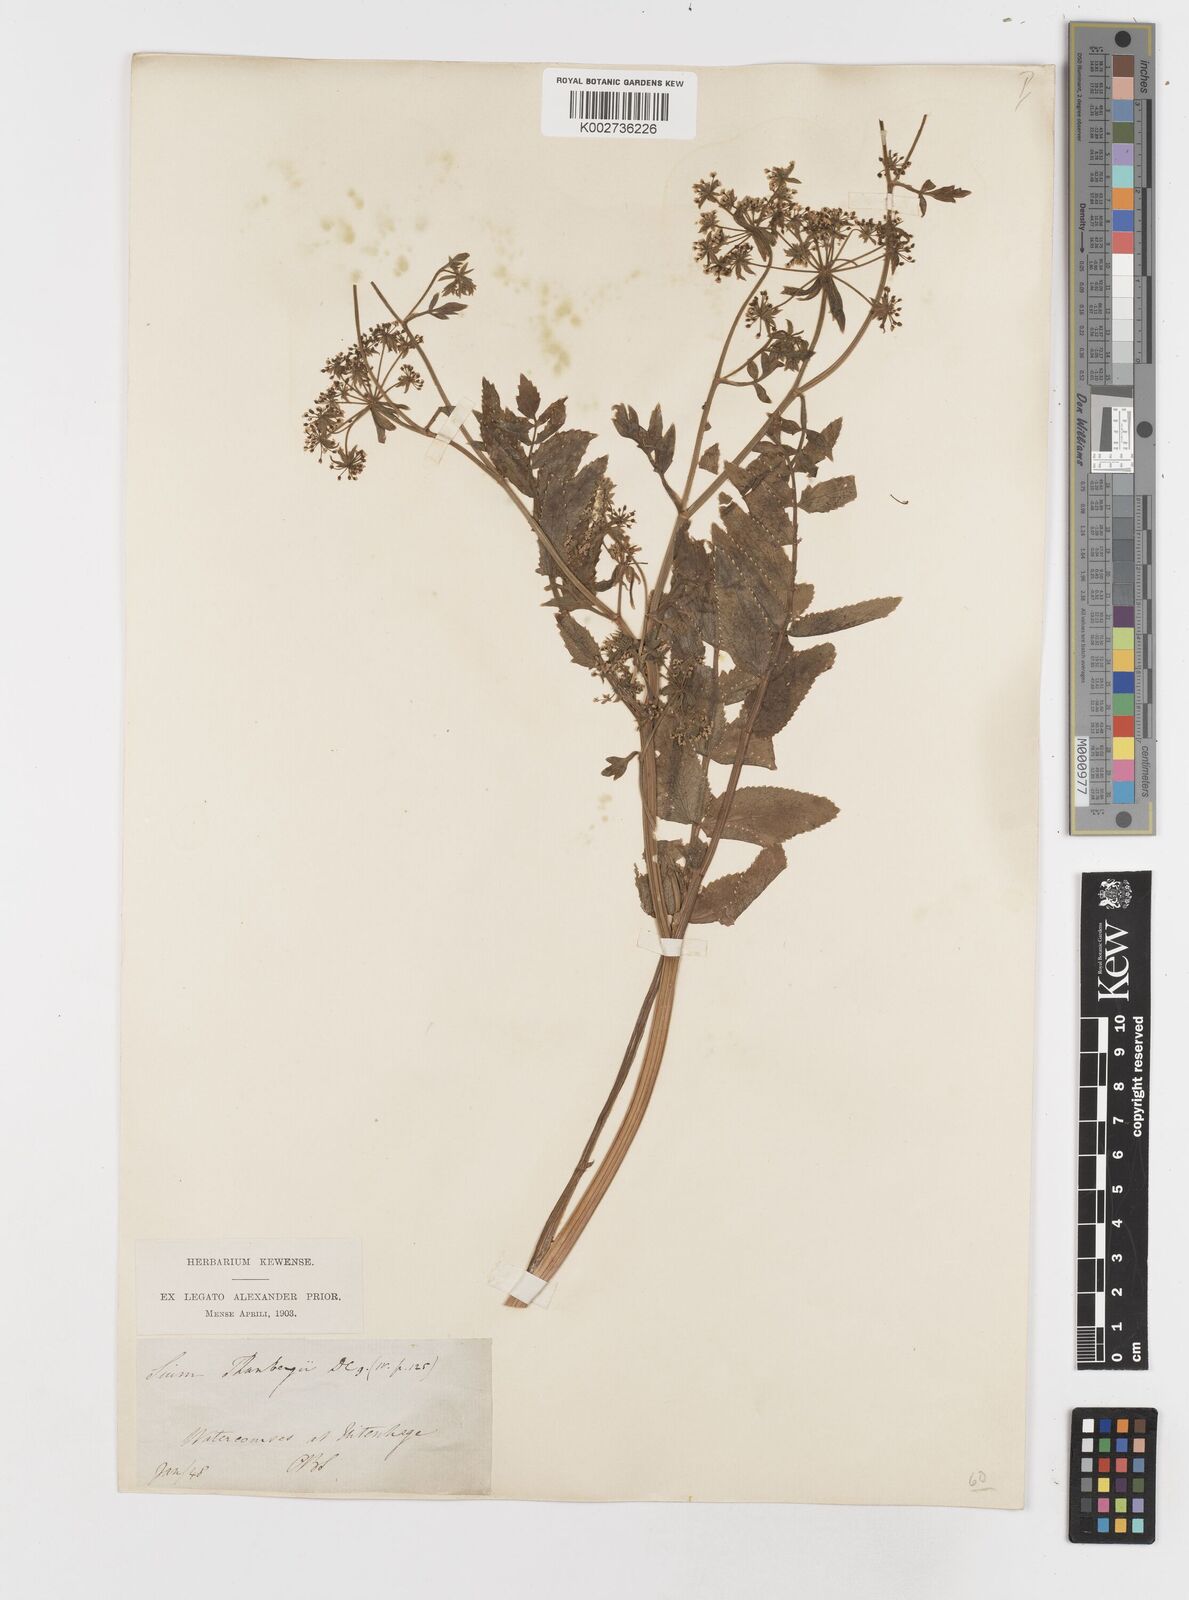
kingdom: Plantae
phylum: Tracheophyta
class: Magnoliopsida
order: Apiales
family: Apiaceae
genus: Berula
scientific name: Berula erecta
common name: Lesser water-parsnip
